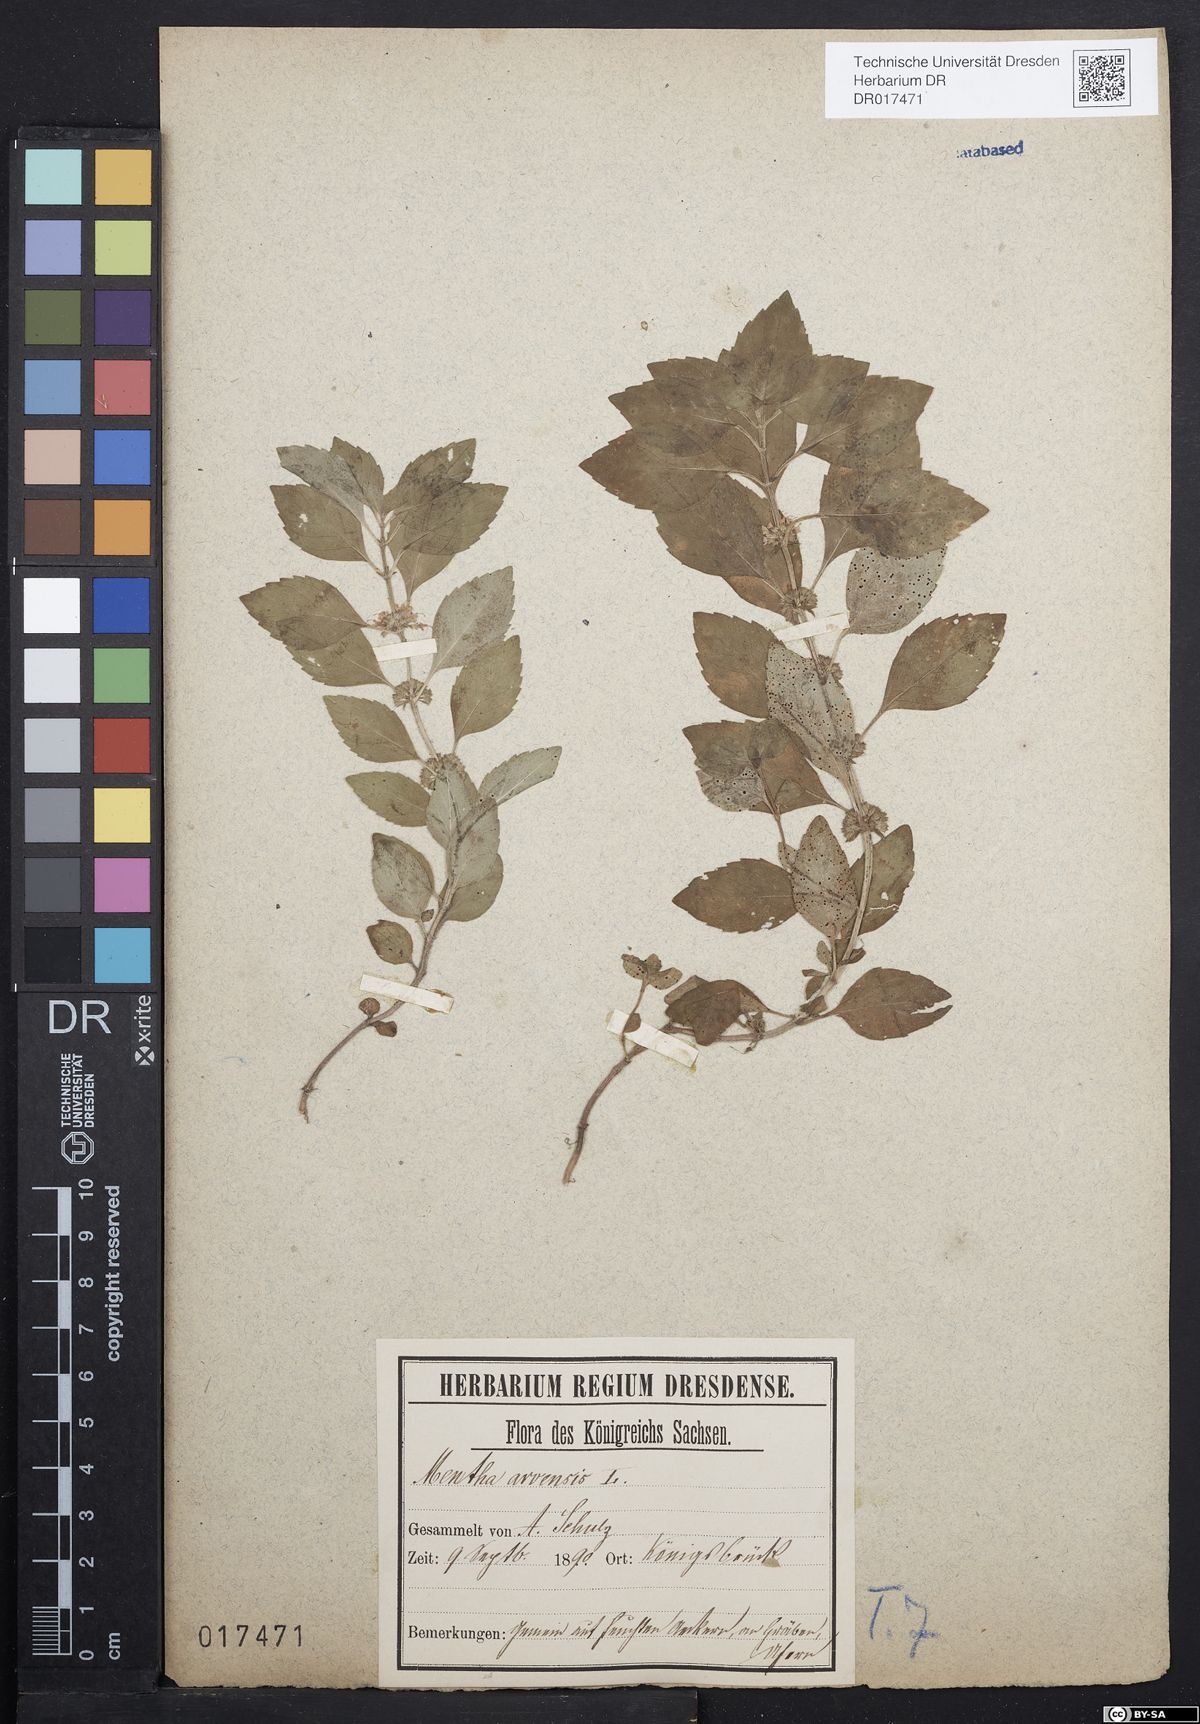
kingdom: Plantae
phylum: Tracheophyta
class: Magnoliopsida
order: Lamiales
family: Lamiaceae
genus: Mentha
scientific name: Mentha arvensis
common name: Corn mint
